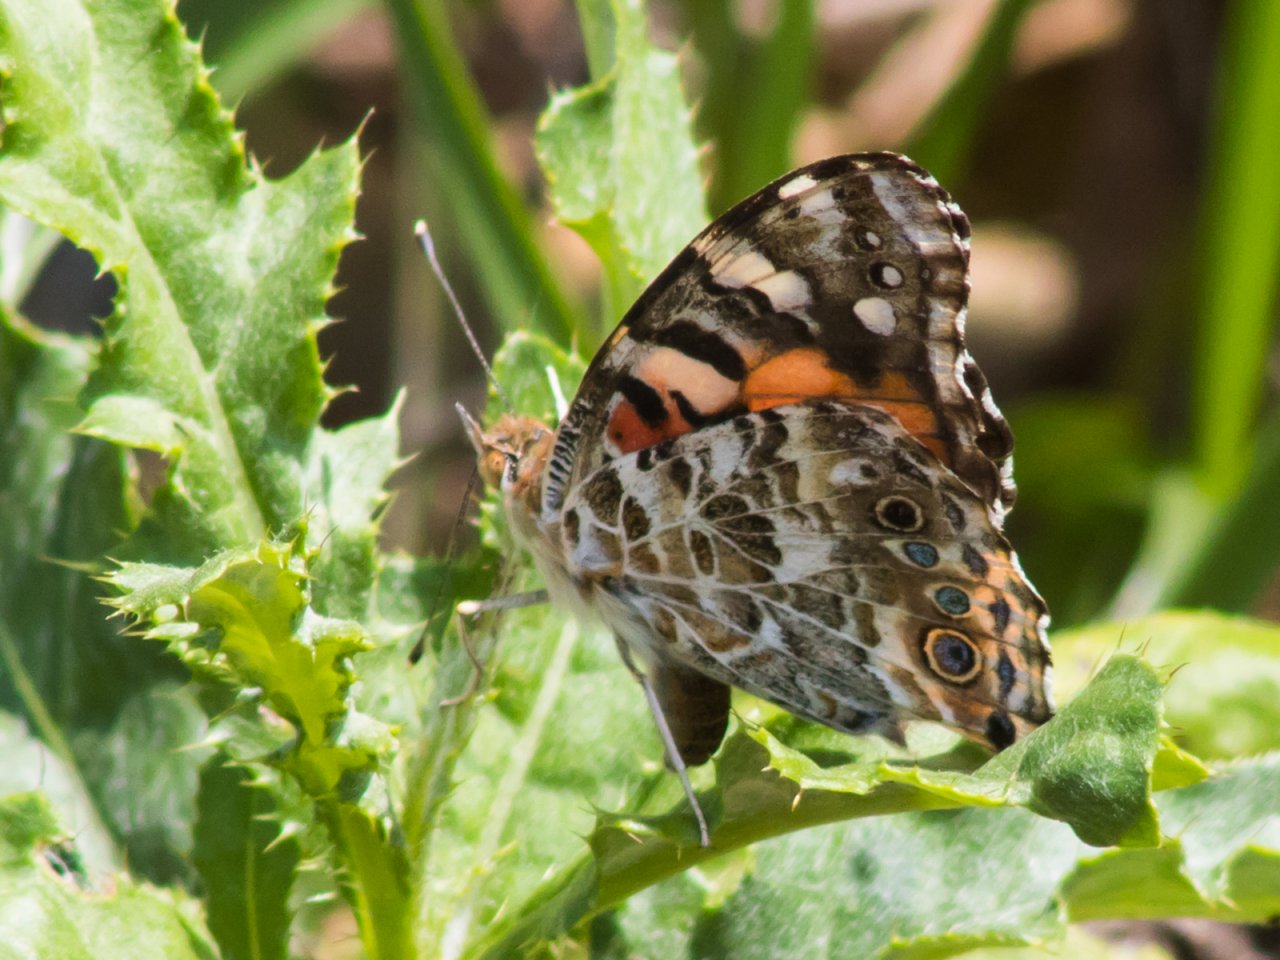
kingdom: Animalia
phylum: Arthropoda
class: Insecta
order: Lepidoptera
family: Nymphalidae
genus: Vanessa
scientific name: Vanessa cardui
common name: Painted Lady
